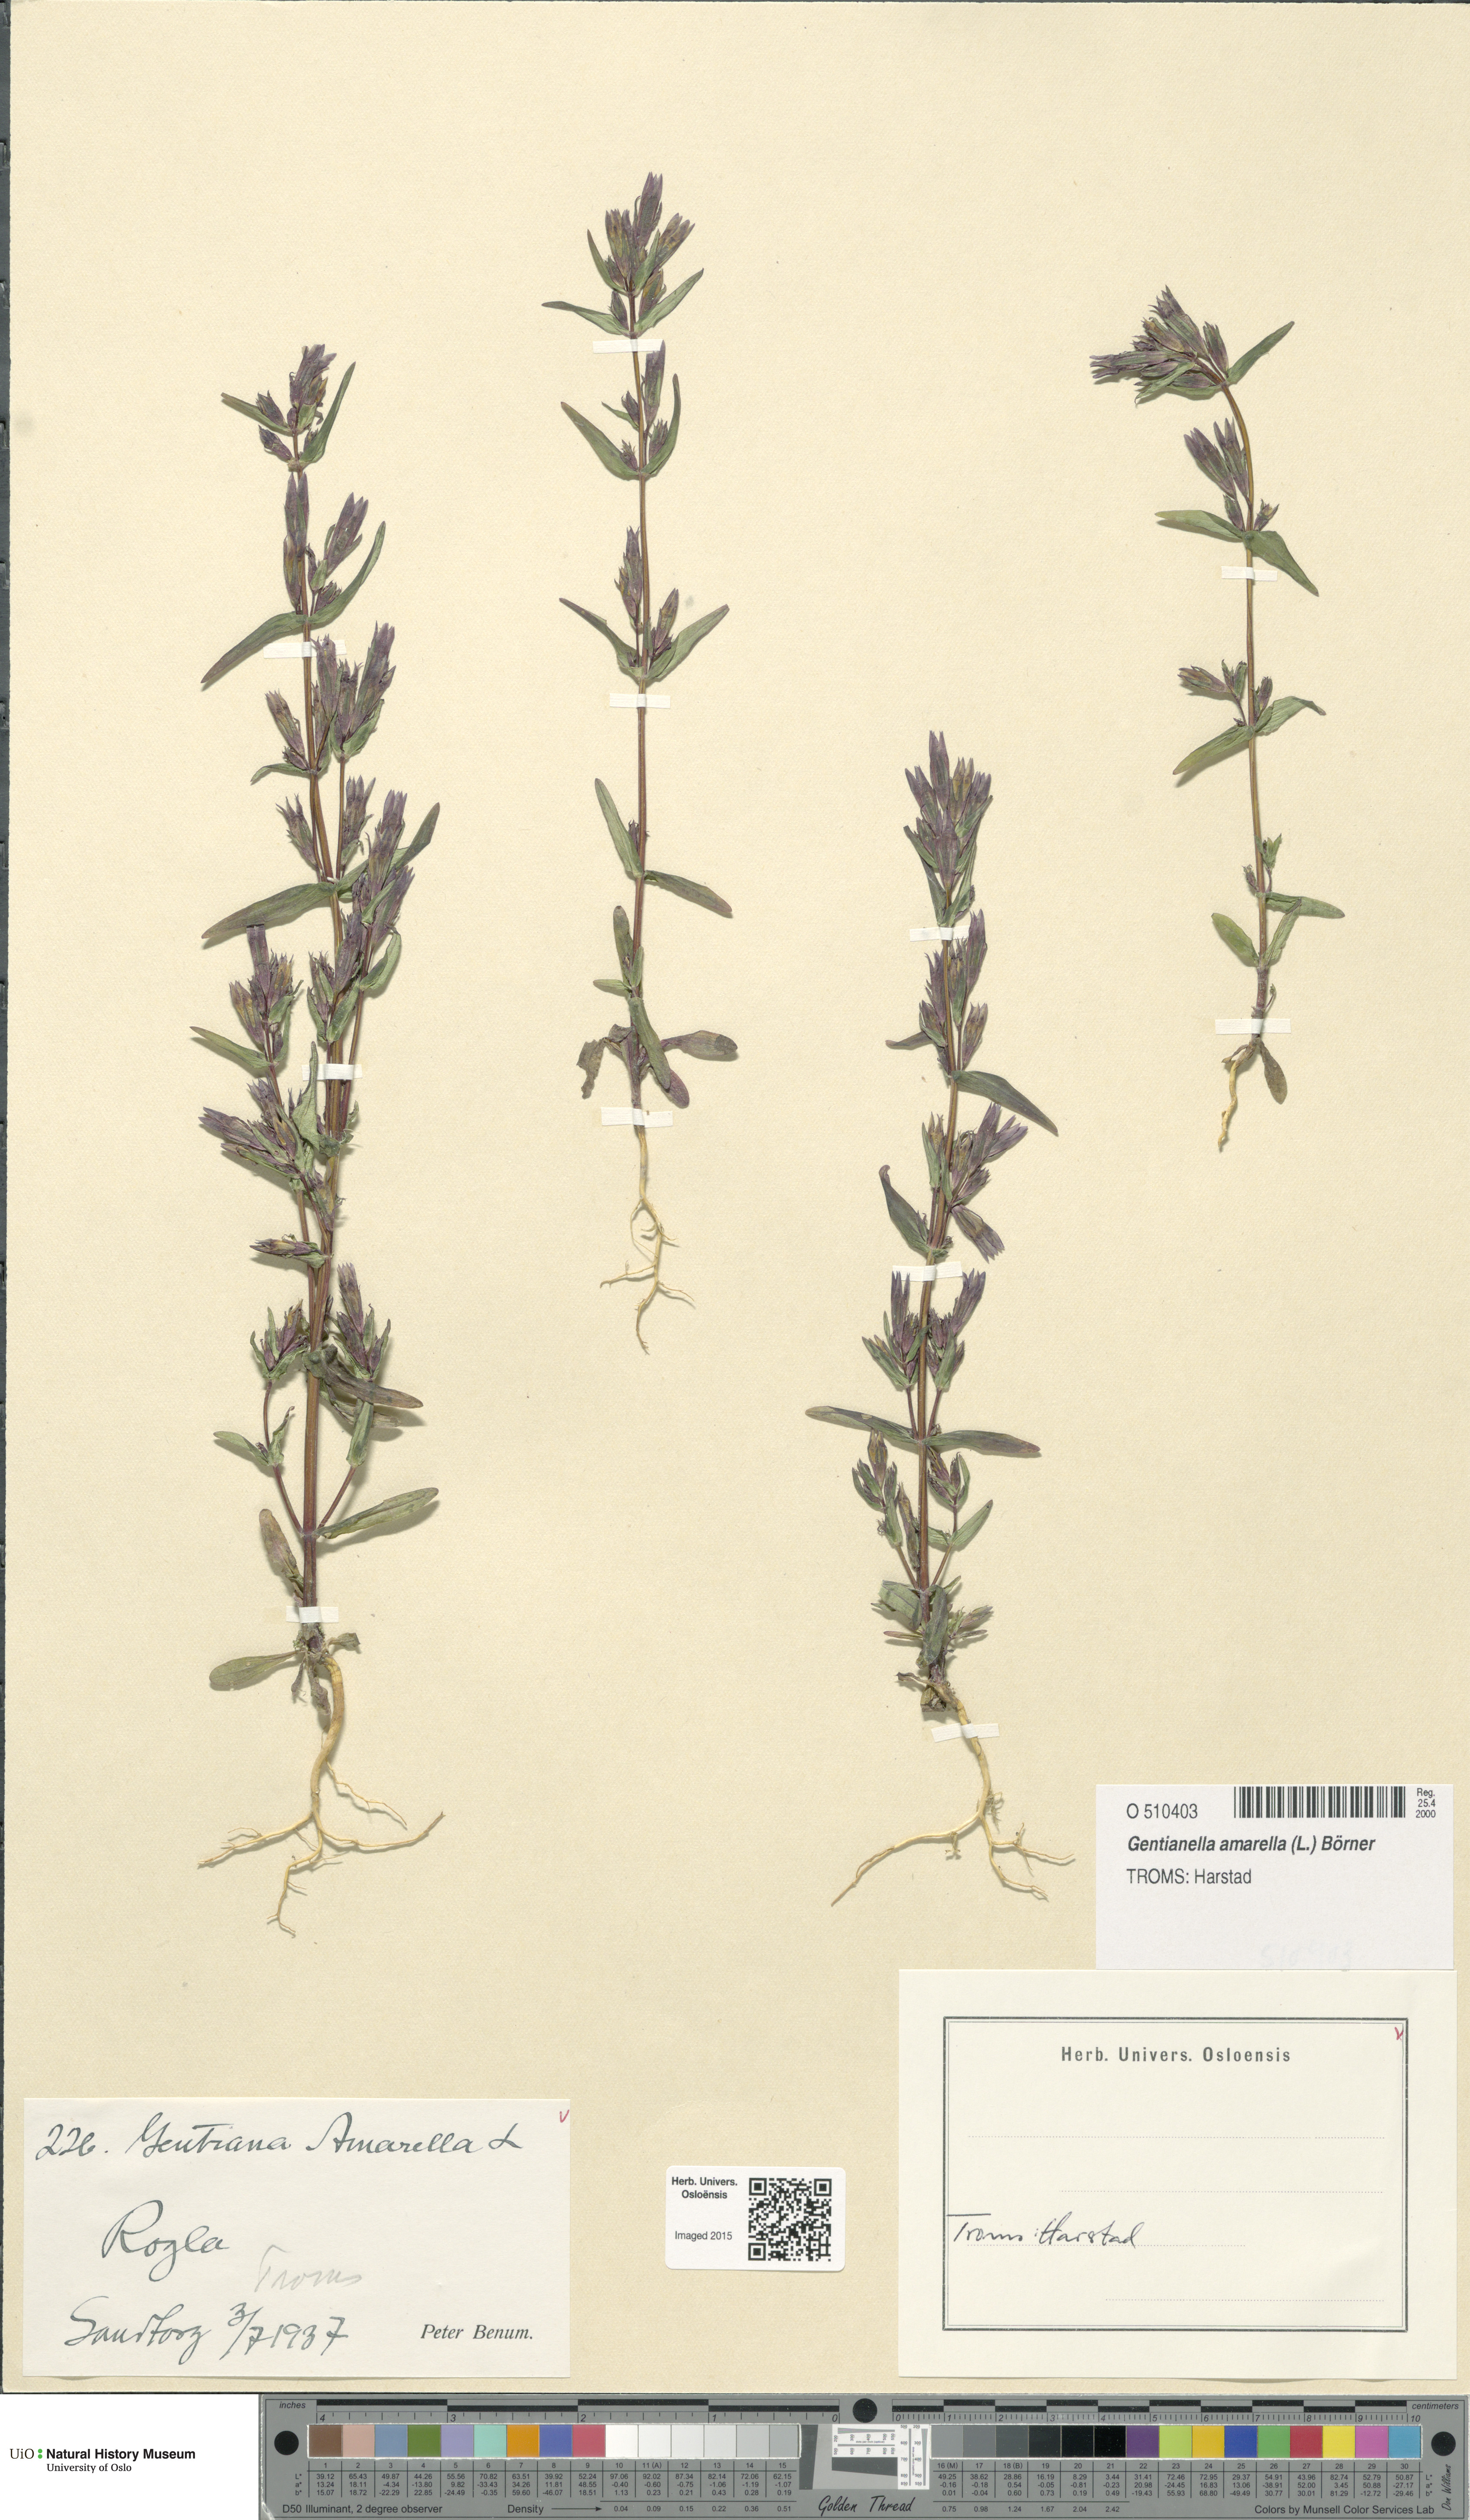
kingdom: Plantae
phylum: Tracheophyta
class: Magnoliopsida
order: Gentianales
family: Gentianaceae
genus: Gentianella
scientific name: Gentianella amarella
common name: Autumn gentian
